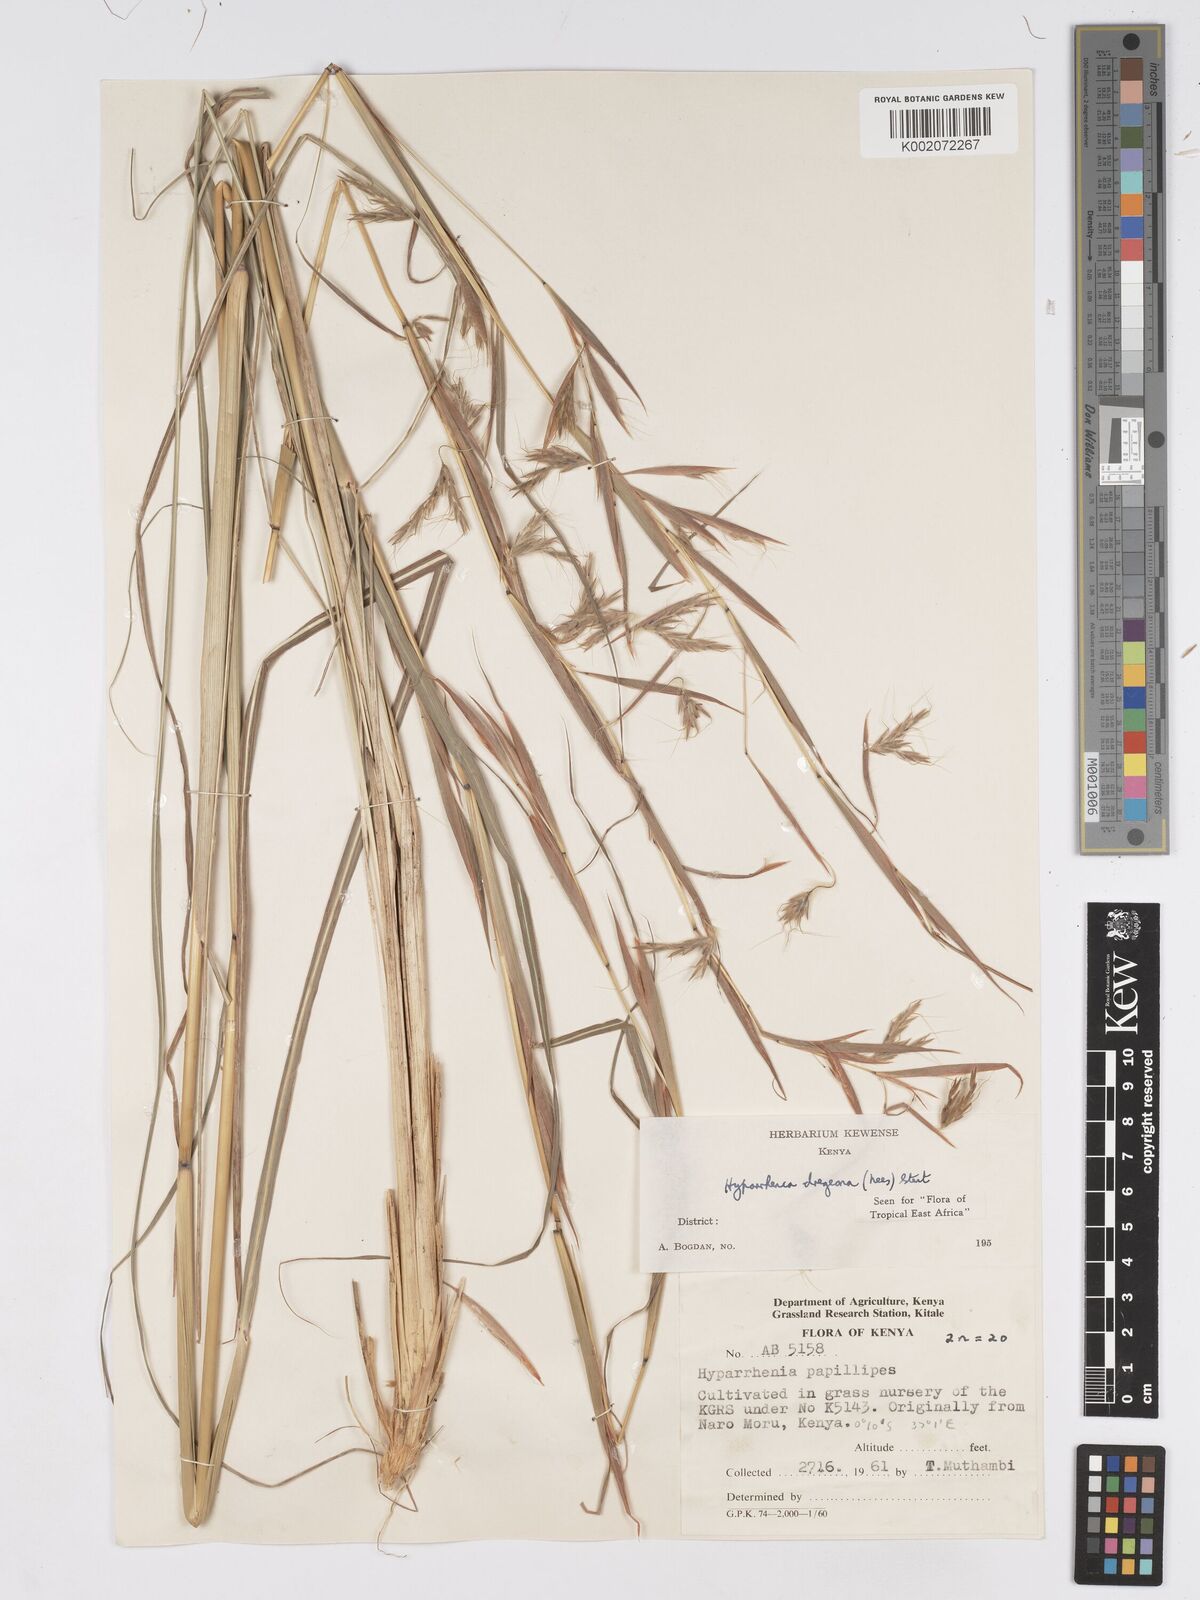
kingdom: Plantae
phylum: Tracheophyta
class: Liliopsida
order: Poales
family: Poaceae
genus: Hyparrhenia
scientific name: Hyparrhenia dregeana
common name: Silky thatching grass
